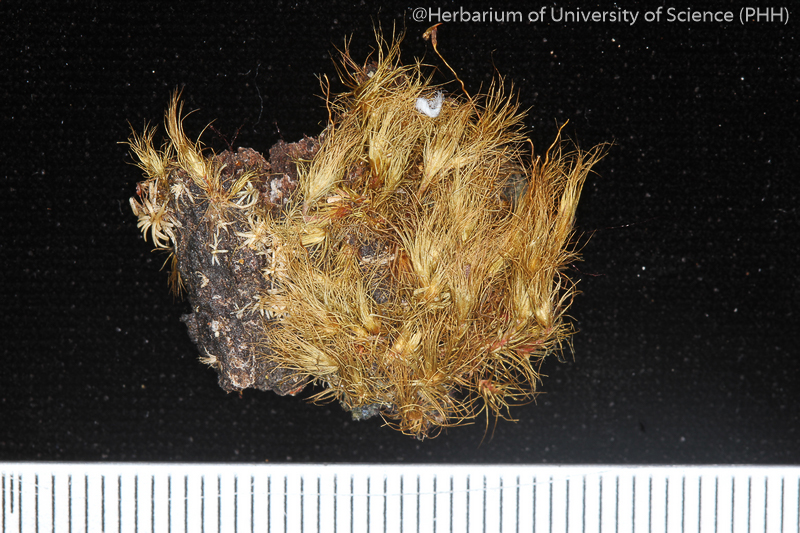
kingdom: Plantae
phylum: Bryophyta
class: Bryopsida
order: Dicranales
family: Leucobryaceae
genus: Campylopus
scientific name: Campylopus fragilis
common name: Brittle swan-neck moss
